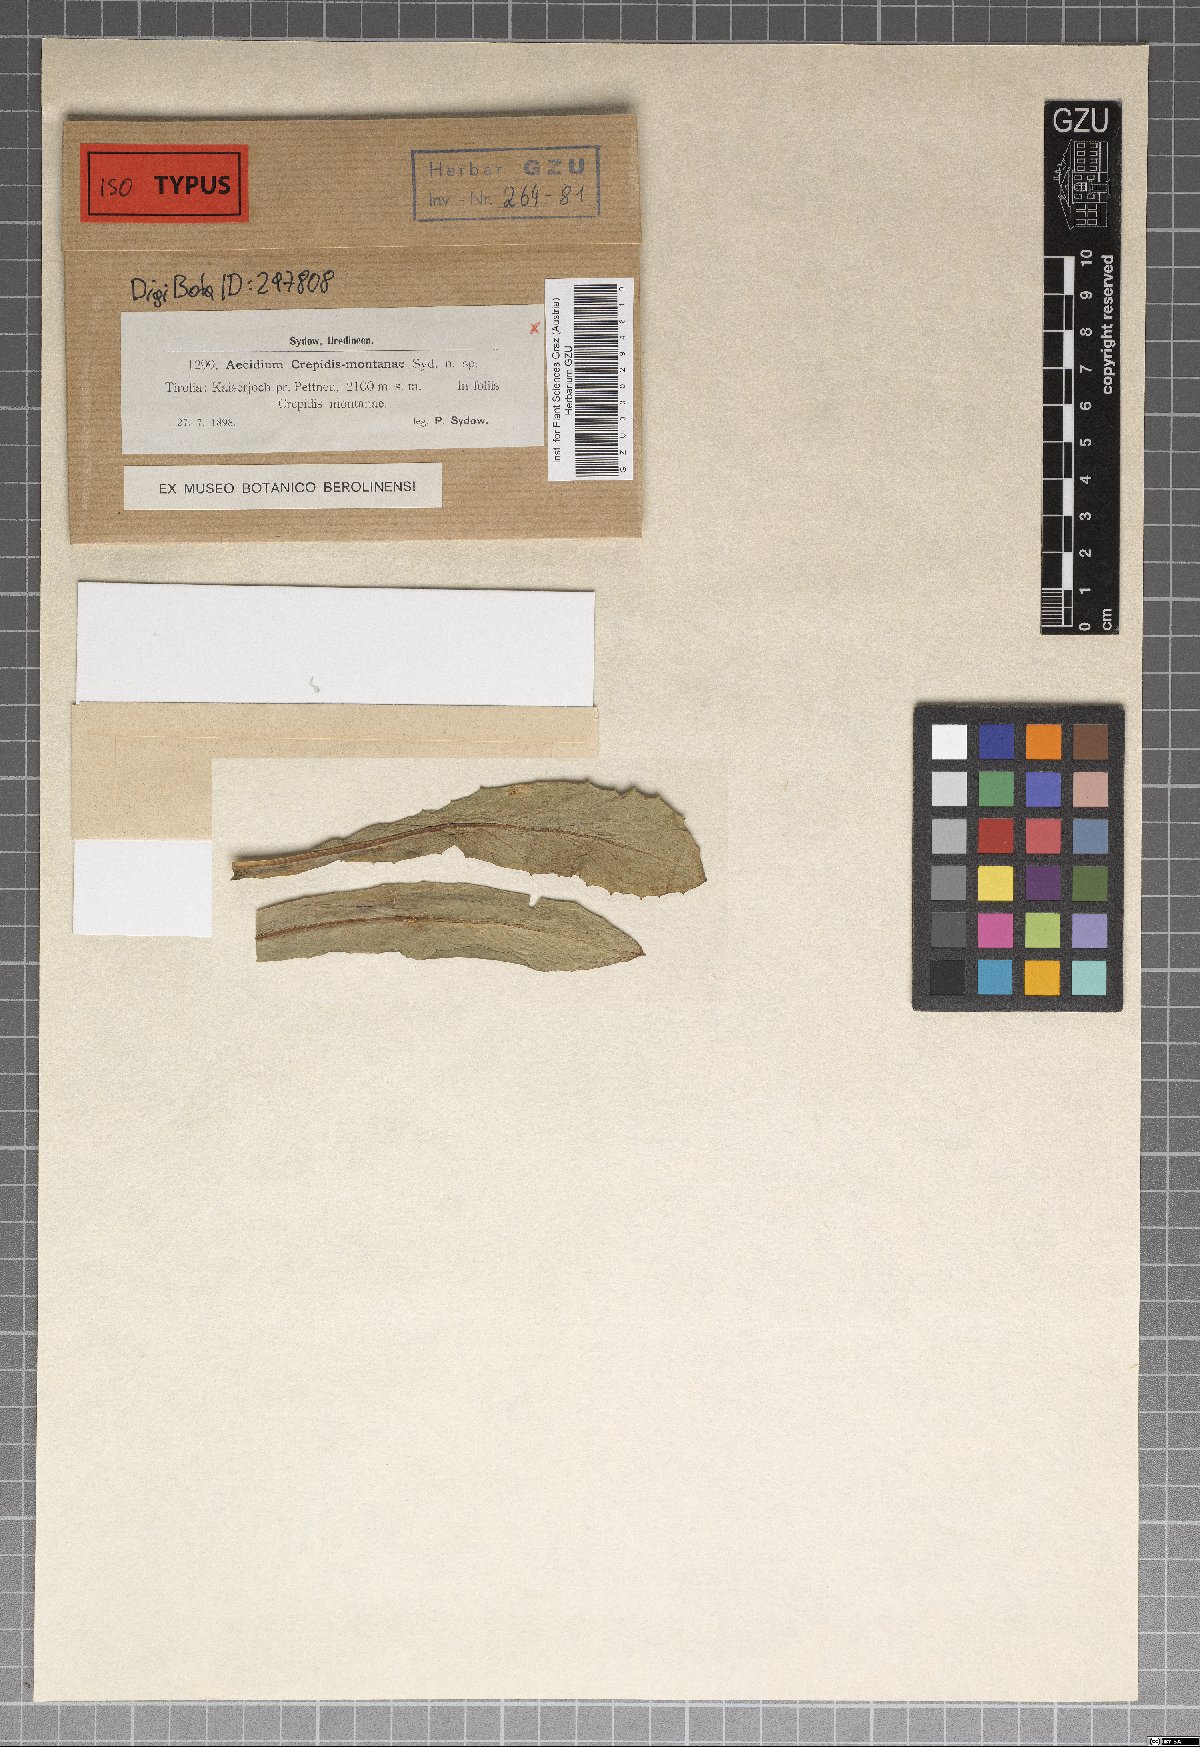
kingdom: Fungi
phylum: Basidiomycota
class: Pucciniomycetes
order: Pucciniales
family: Pucciniaceae
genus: Dicaeoma
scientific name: Dicaeoma crepidis-montanae
